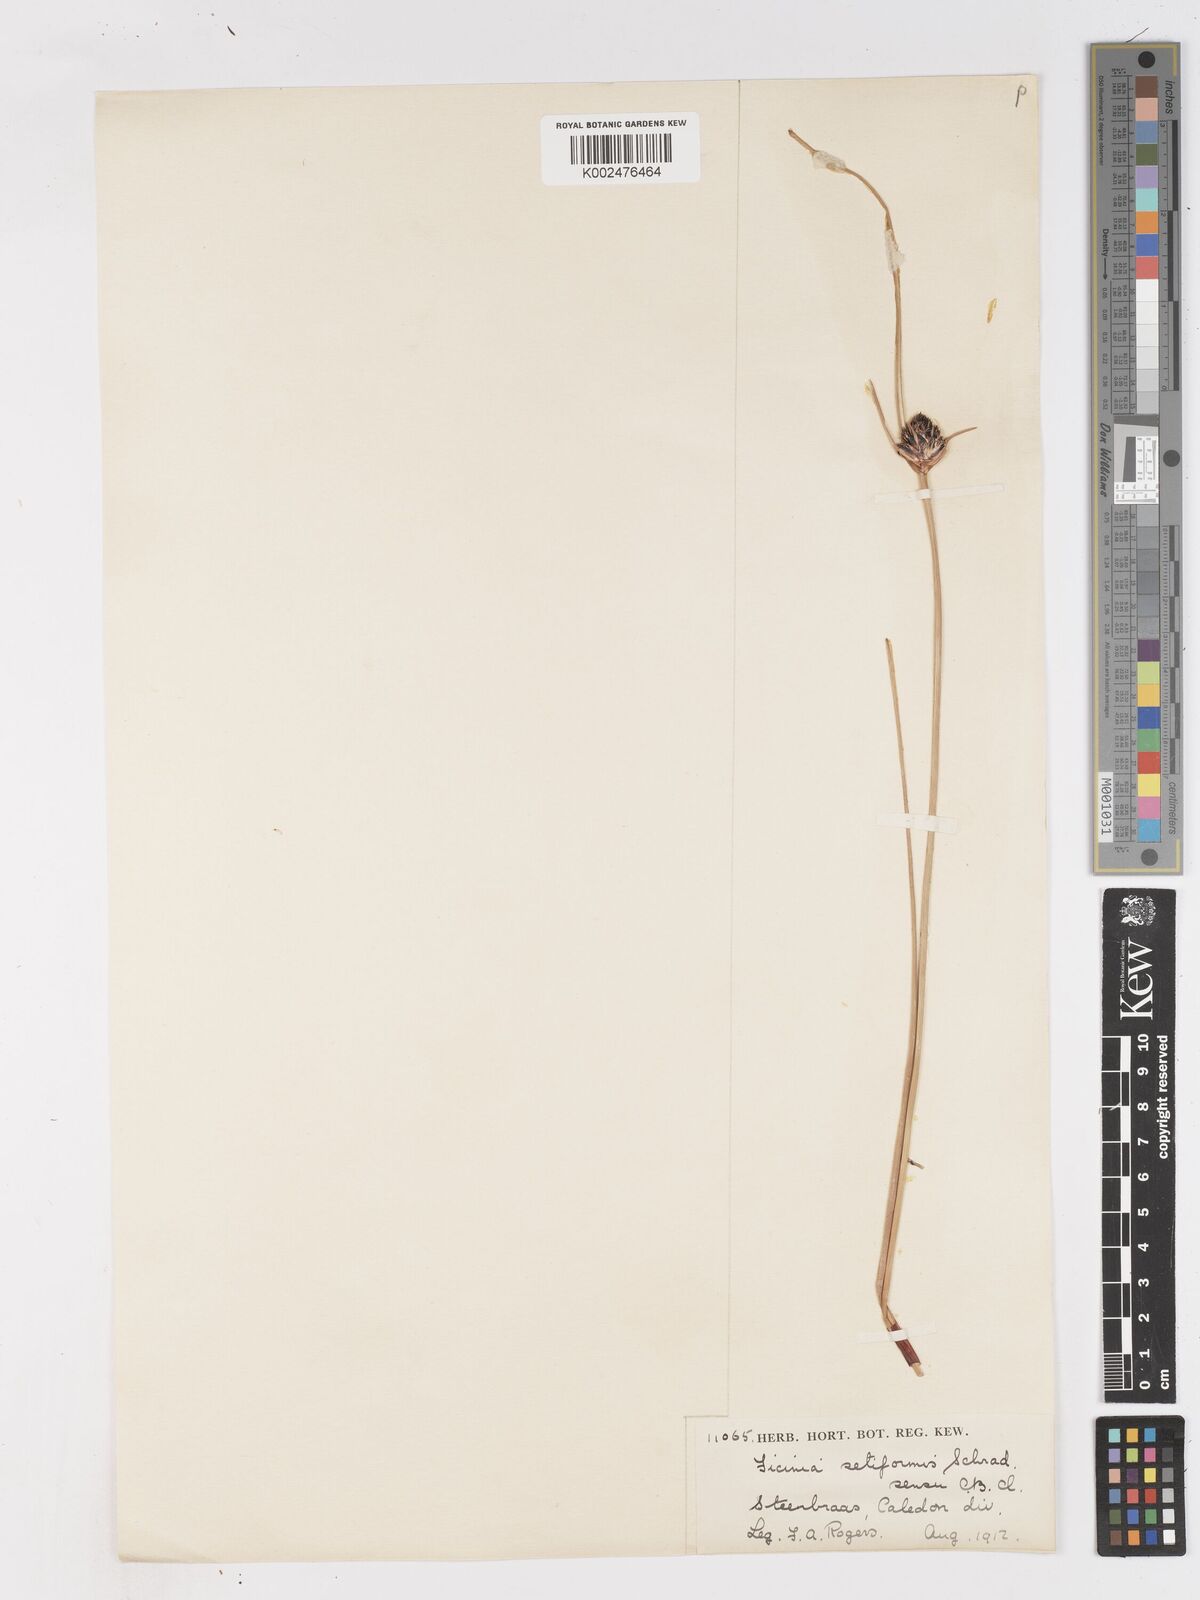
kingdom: Plantae
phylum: Tracheophyta
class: Liliopsida
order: Poales
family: Cyperaceae
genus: Ficinia
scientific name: Ficinia indica
